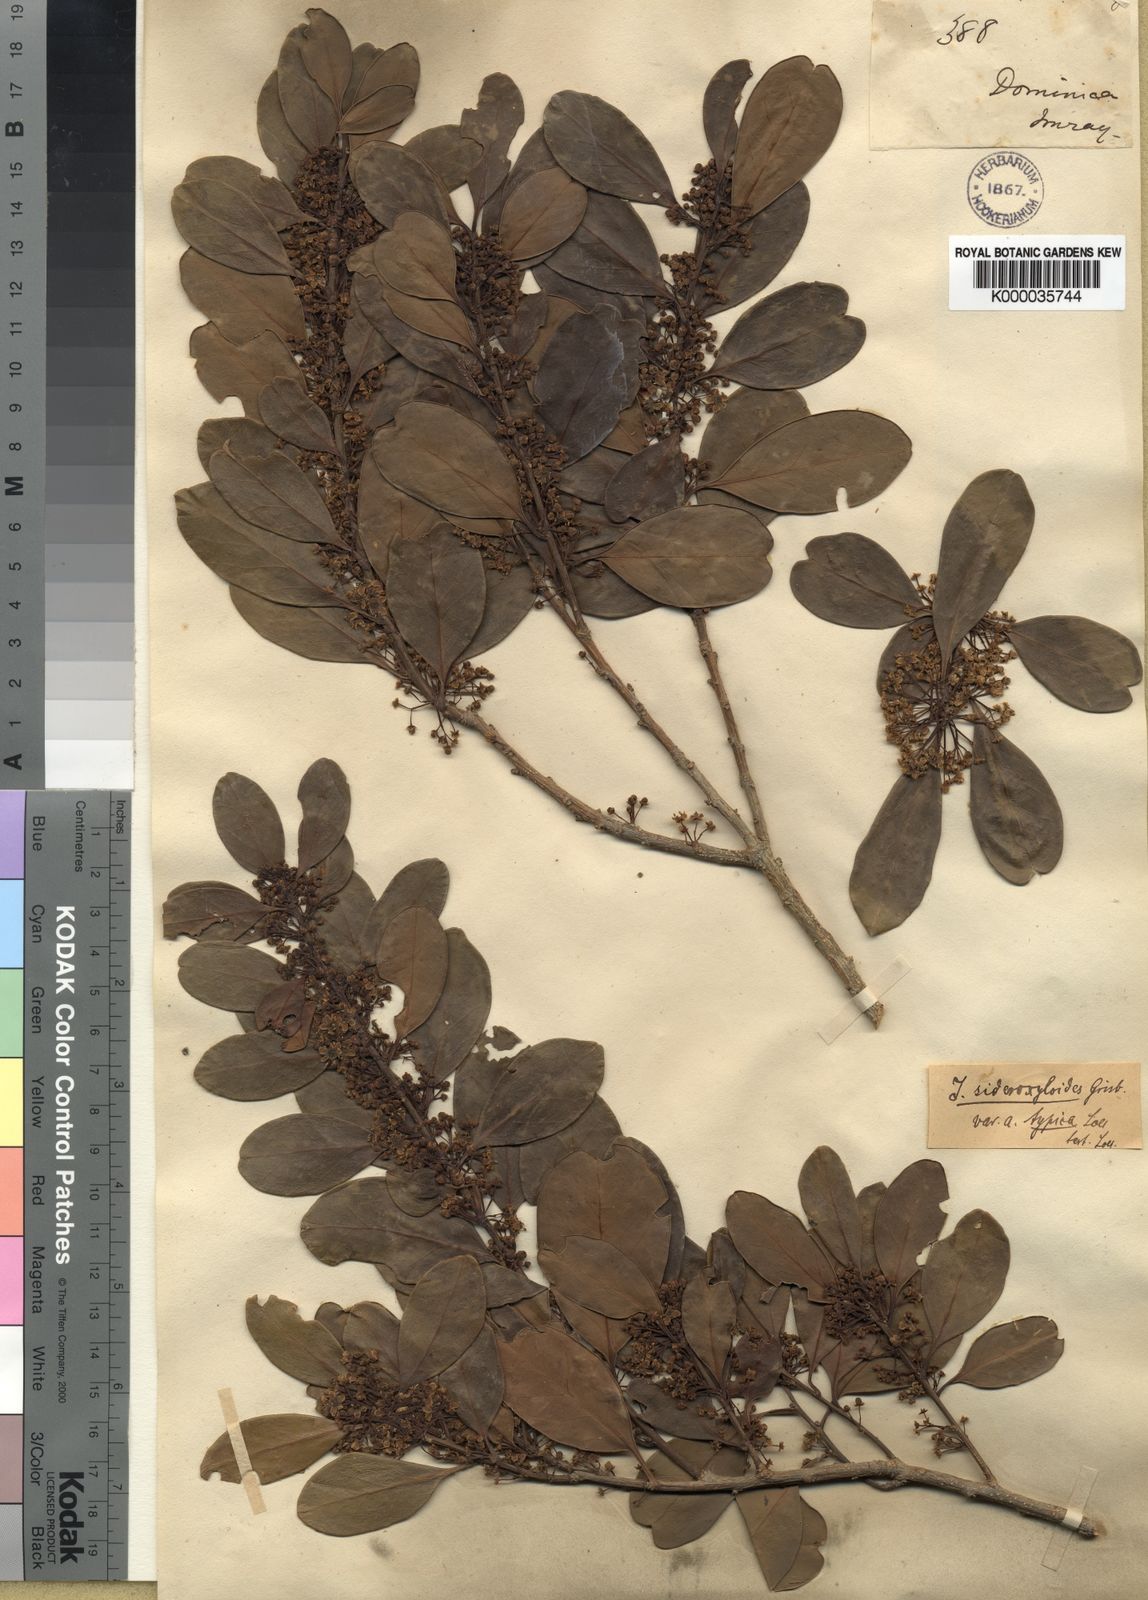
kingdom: Plantae
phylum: Tracheophyta
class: Magnoliopsida
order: Aquifoliales
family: Aquifoliaceae
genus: Ilex
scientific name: Ilex sideroxyloides
